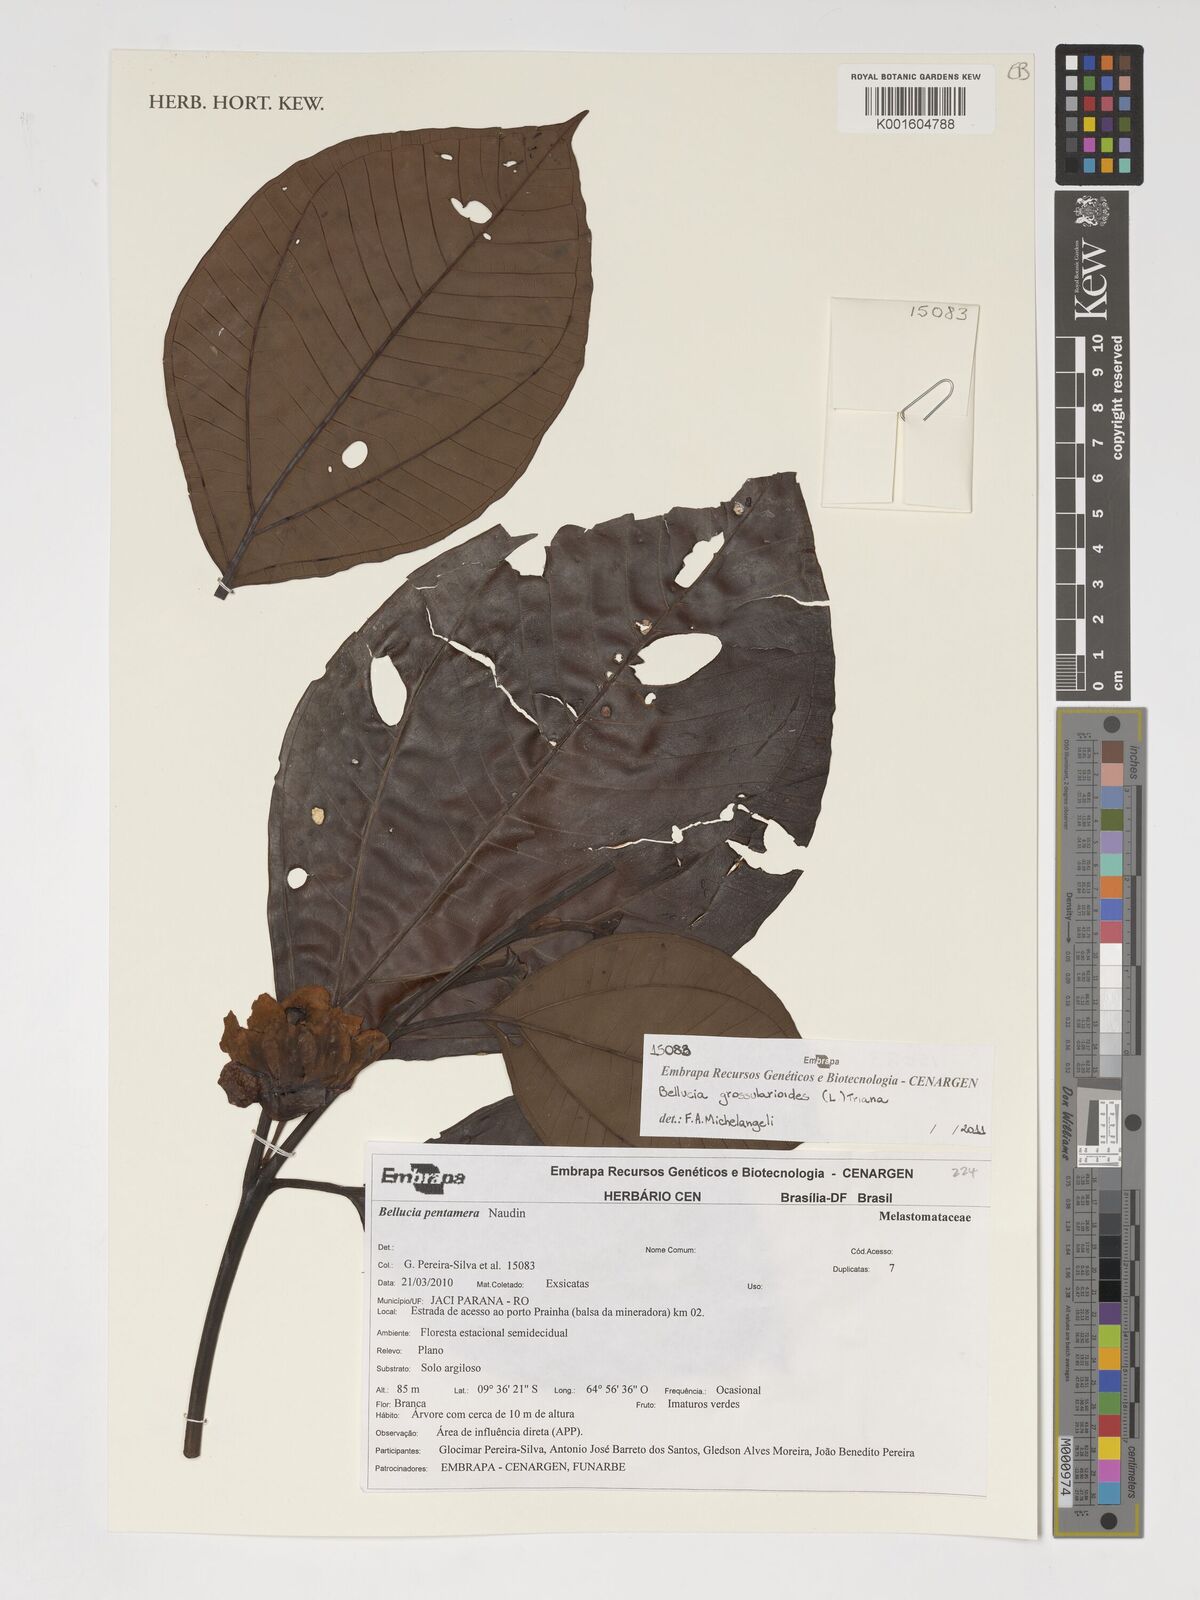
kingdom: Plantae
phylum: Tracheophyta
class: Magnoliopsida
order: Myrtales
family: Melastomataceae
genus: Bellucia
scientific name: Bellucia grossularioides
